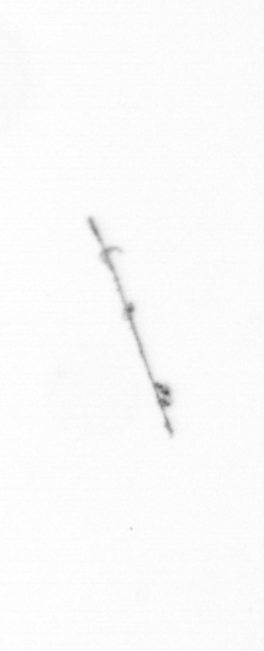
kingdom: Chromista
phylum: Ochrophyta
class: Bacillariophyceae
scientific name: Bacillariophyceae
